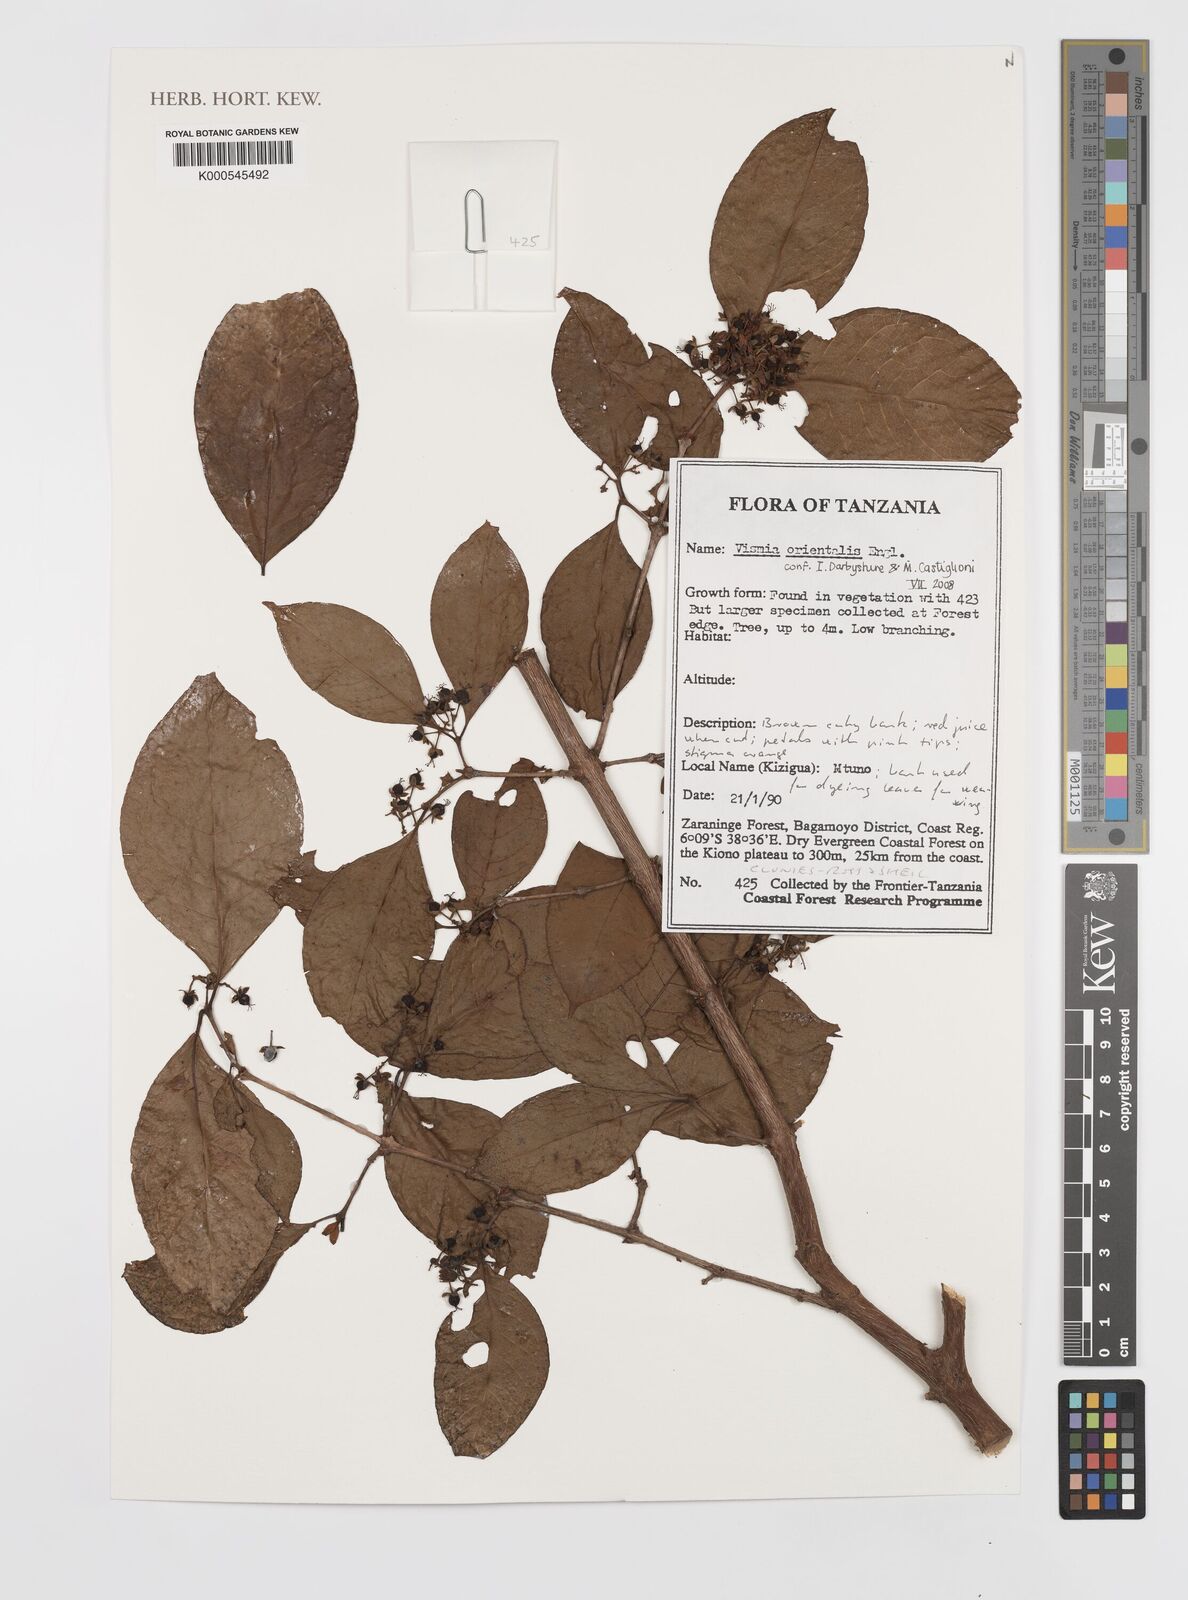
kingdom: Plantae
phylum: Tracheophyta
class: Magnoliopsida
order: Malpighiales
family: Hypericaceae
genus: Psorospermum
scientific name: Psorospermum orientale
